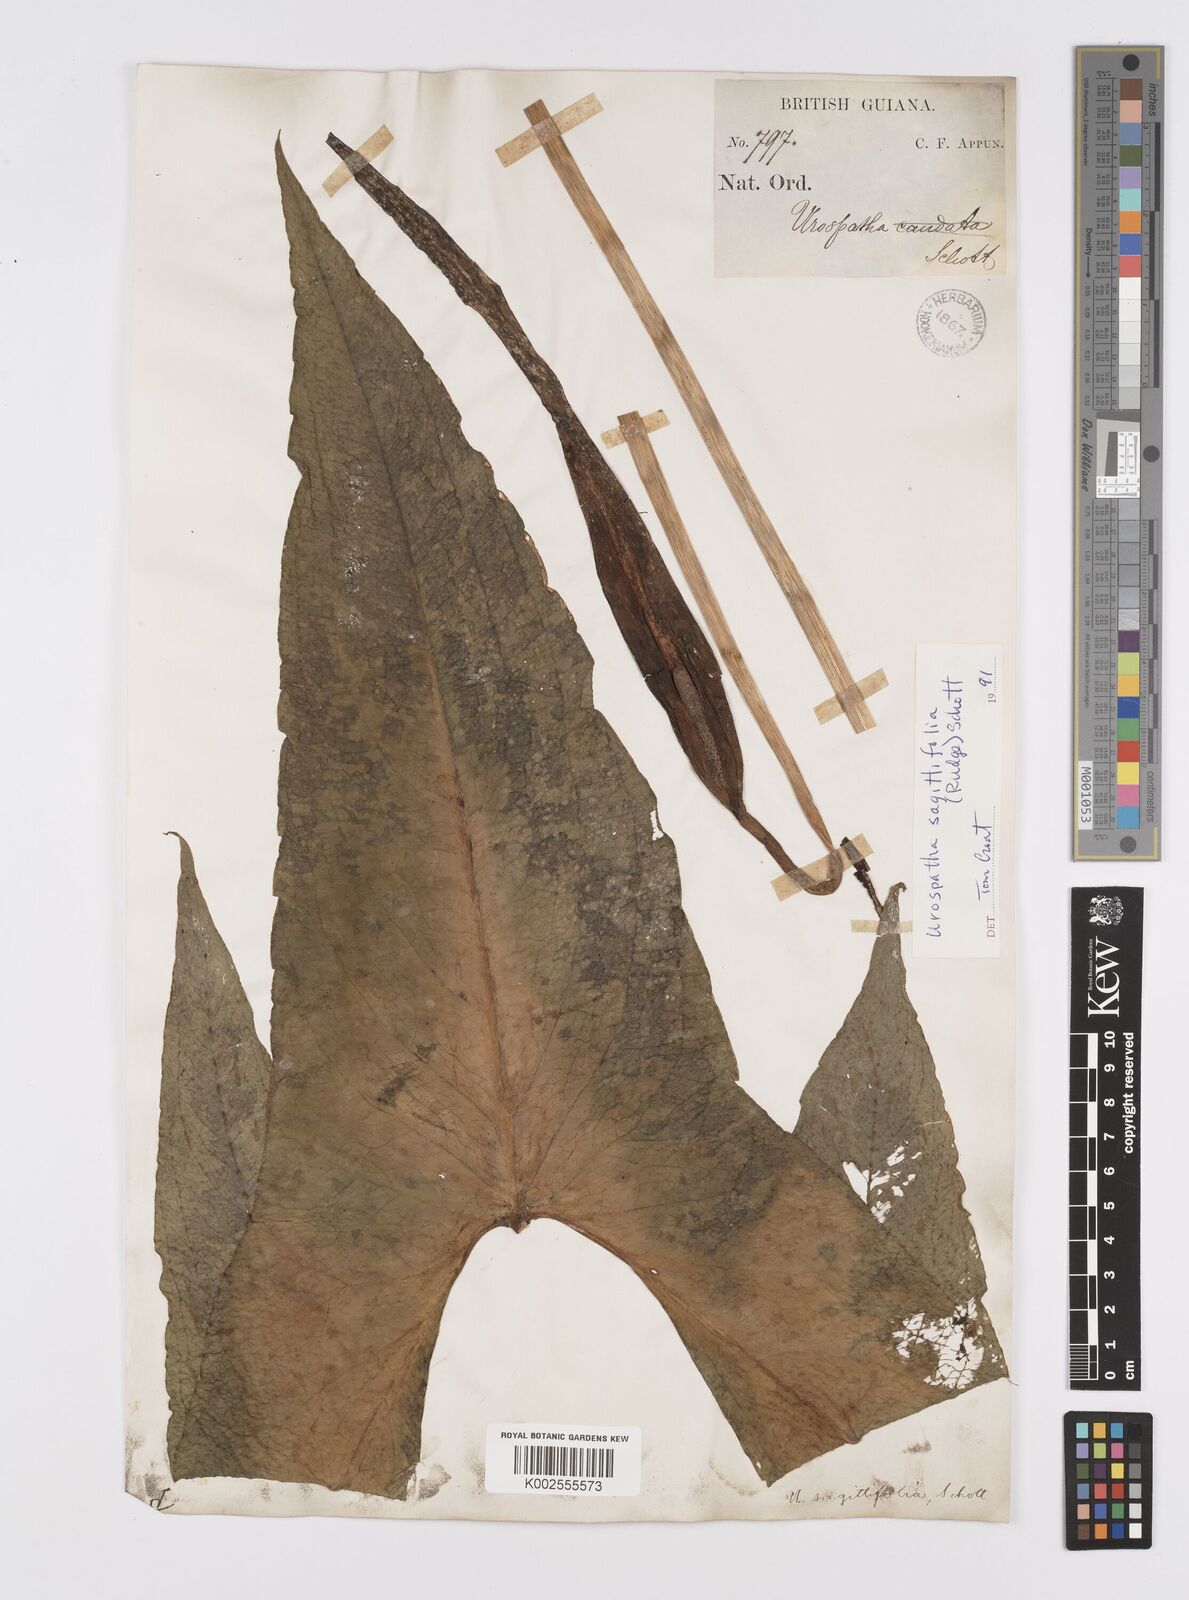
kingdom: Plantae
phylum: Tracheophyta
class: Liliopsida
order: Alismatales
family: Araceae
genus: Urospatha
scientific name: Urospatha sagittifolia
